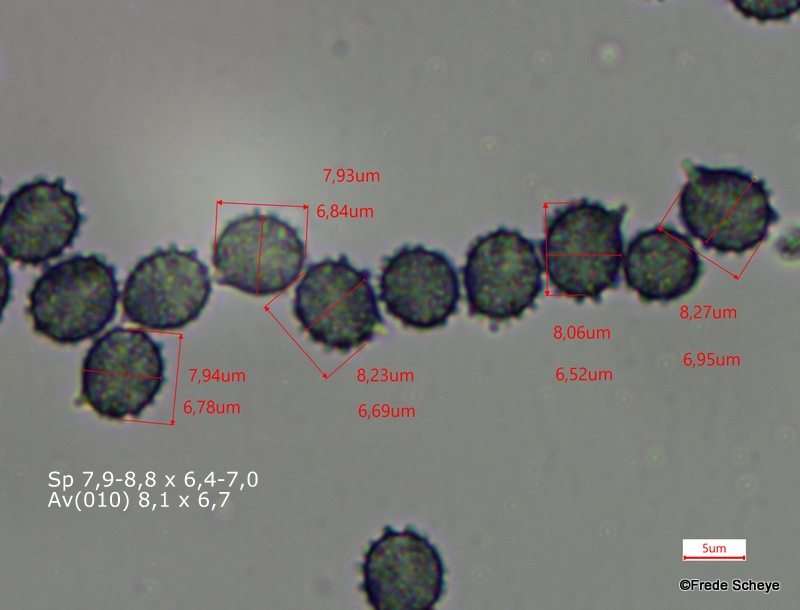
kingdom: Fungi
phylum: Basidiomycota
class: Agaricomycetes
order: Russulales
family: Russulaceae
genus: Russula
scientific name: Russula queletii
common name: Quélets skørhat
